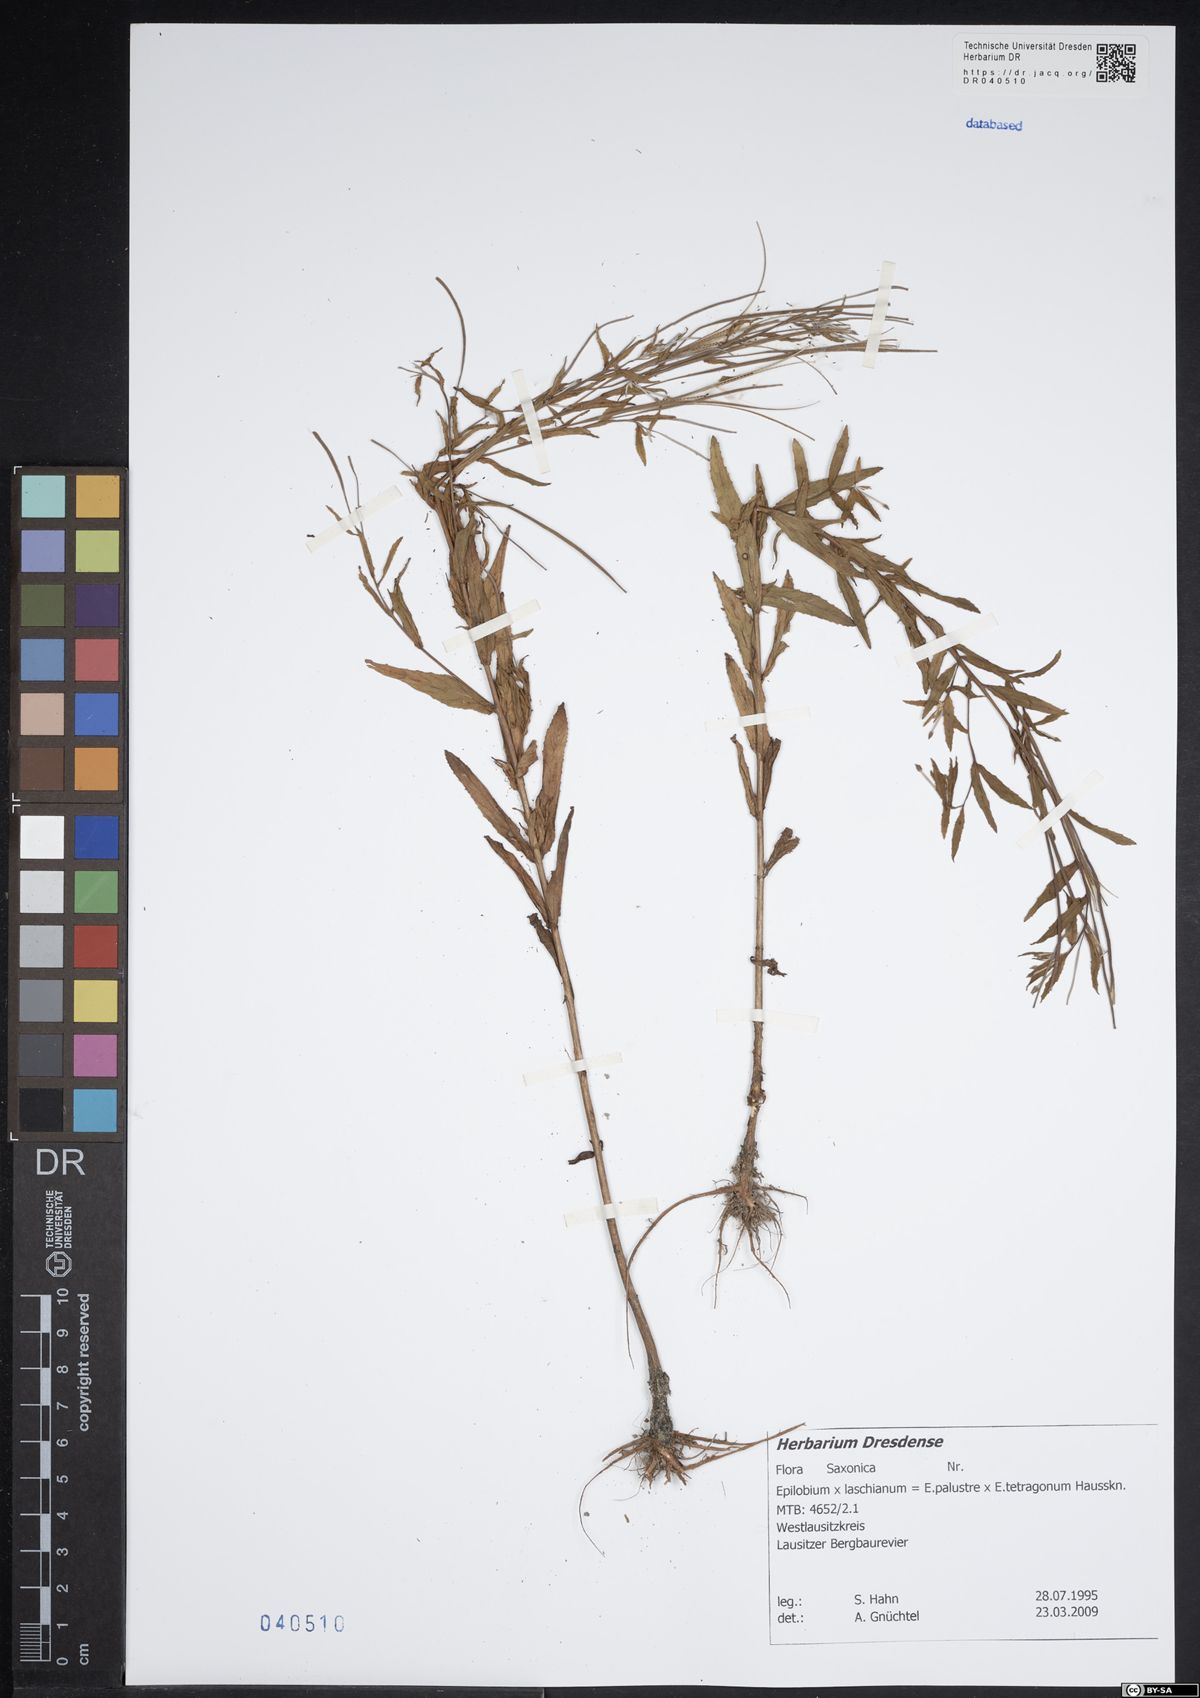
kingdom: Plantae
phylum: Tracheophyta
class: Magnoliopsida
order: Myrtales
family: Onagraceae
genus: Epilobium
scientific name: Epilobium laschianum
